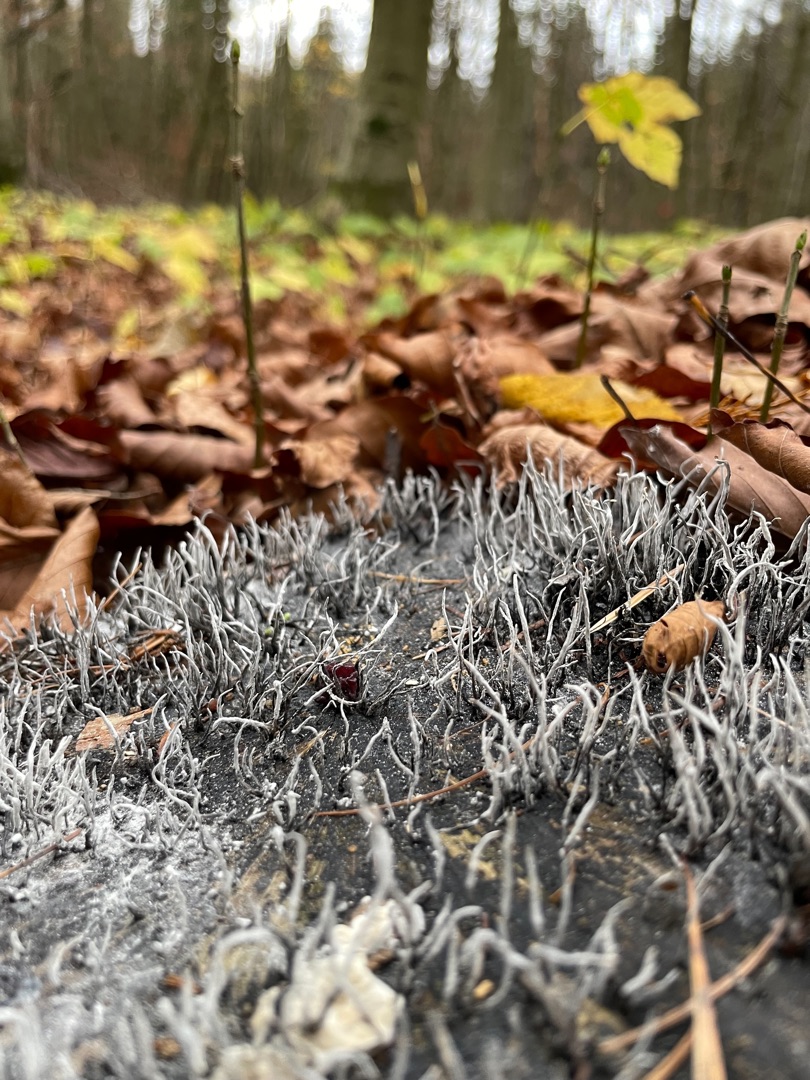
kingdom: Fungi
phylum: Ascomycota
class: Sordariomycetes
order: Xylariales
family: Xylariaceae
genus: Xylaria
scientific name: Xylaria hypoxylon
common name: Grenet stødsvamp
